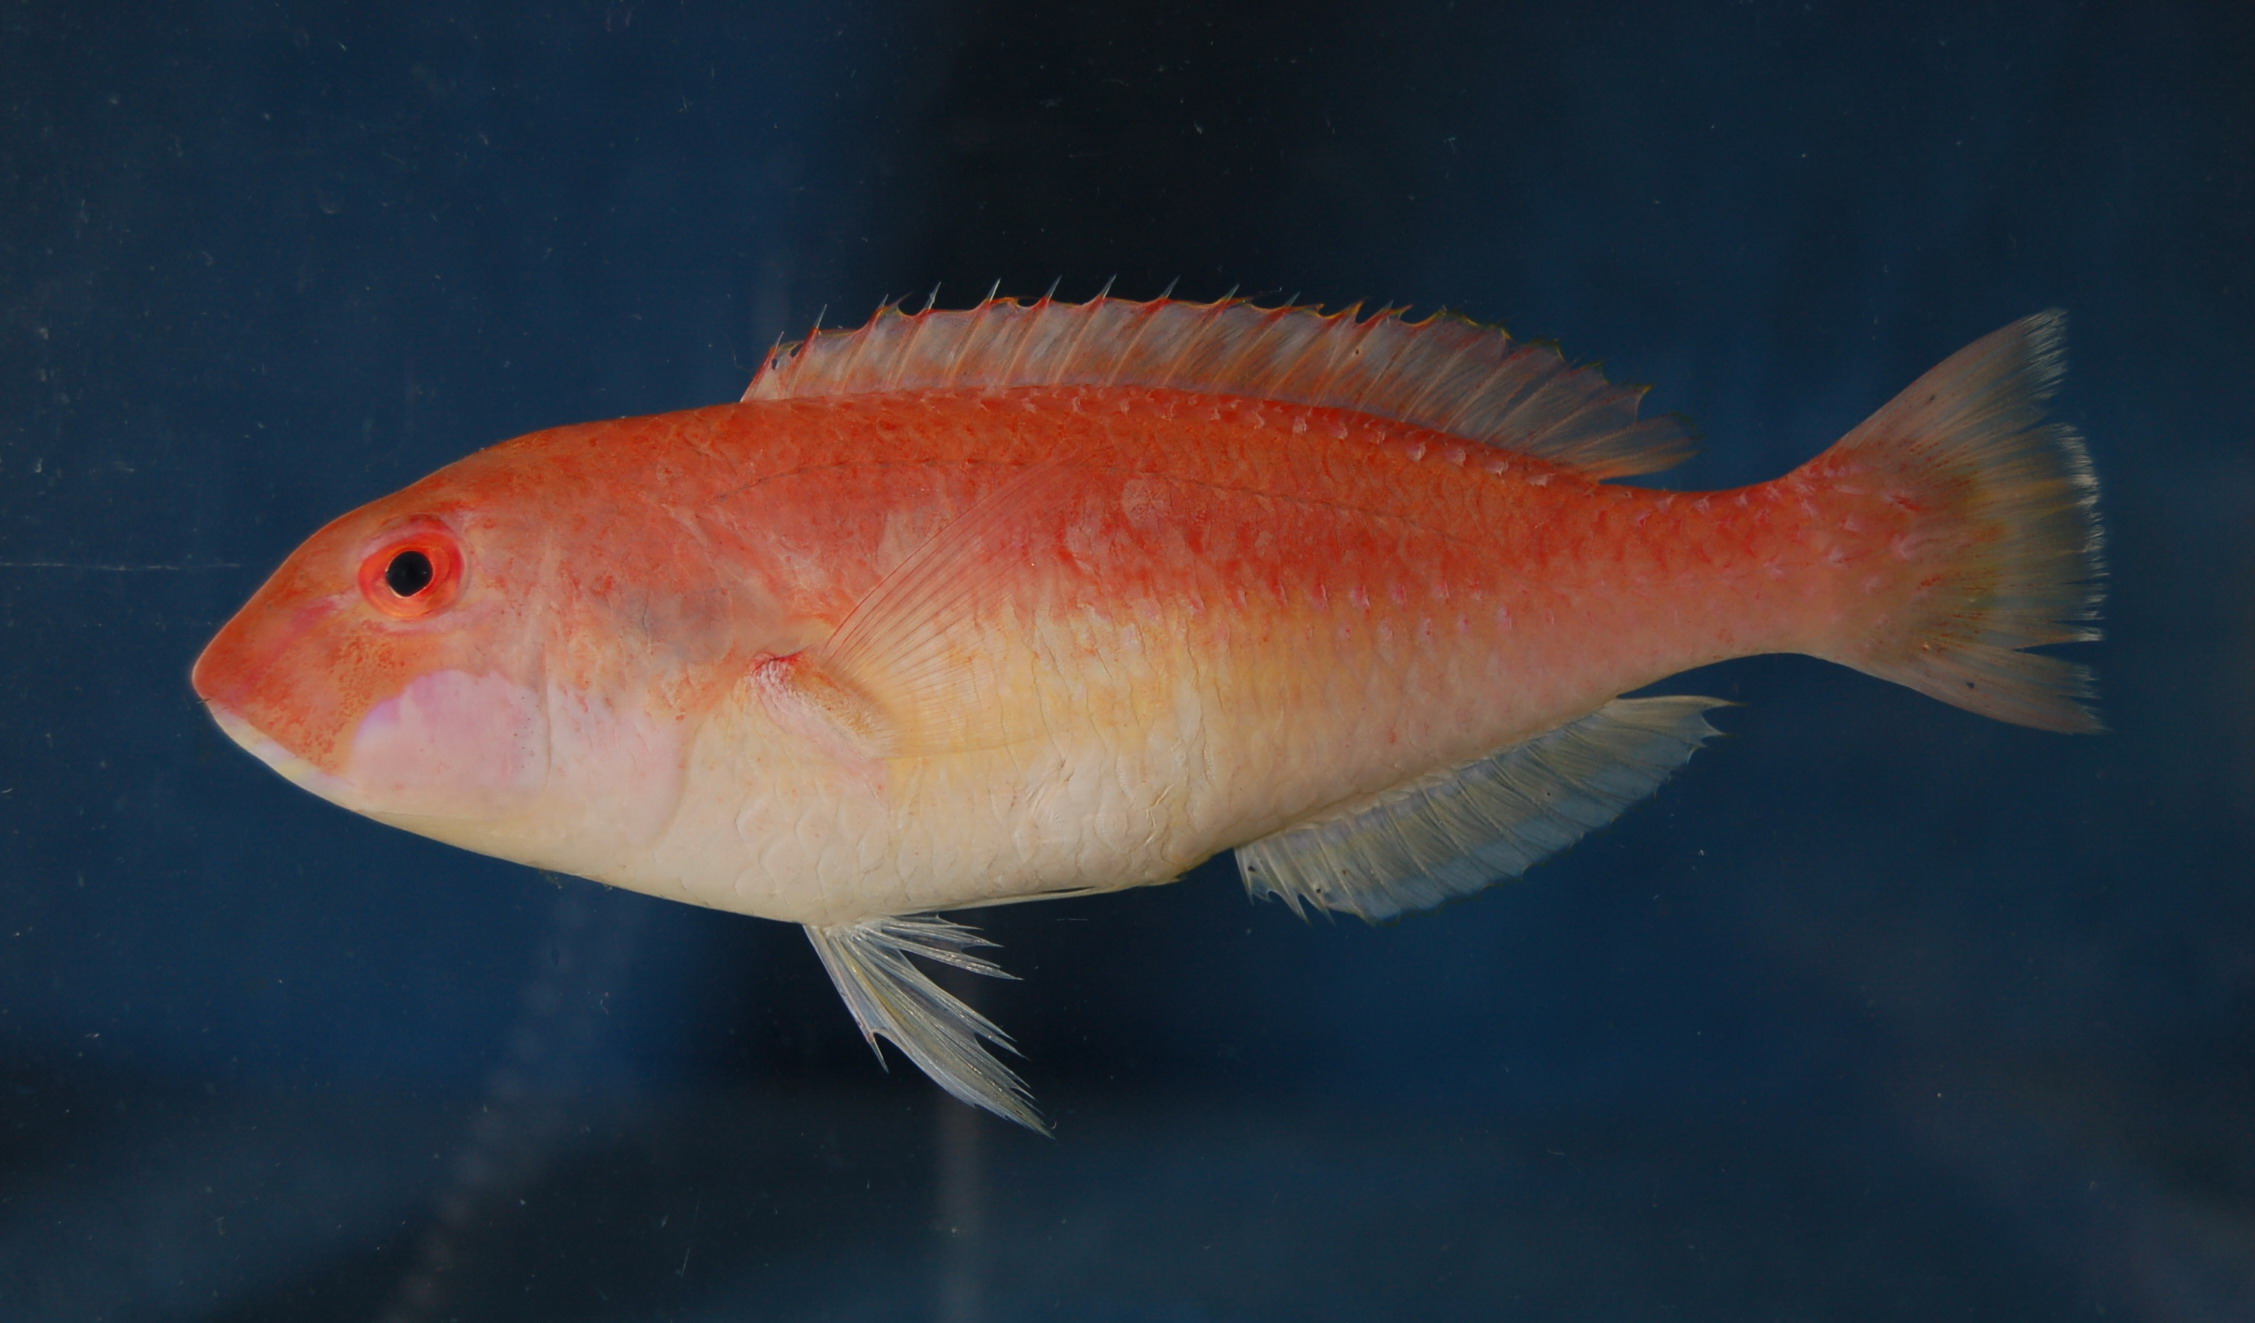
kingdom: Animalia
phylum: Chordata
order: Perciformes
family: Labridae
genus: Choerodon
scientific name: Choerodon gymnogenys
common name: Purplelined wrasse
